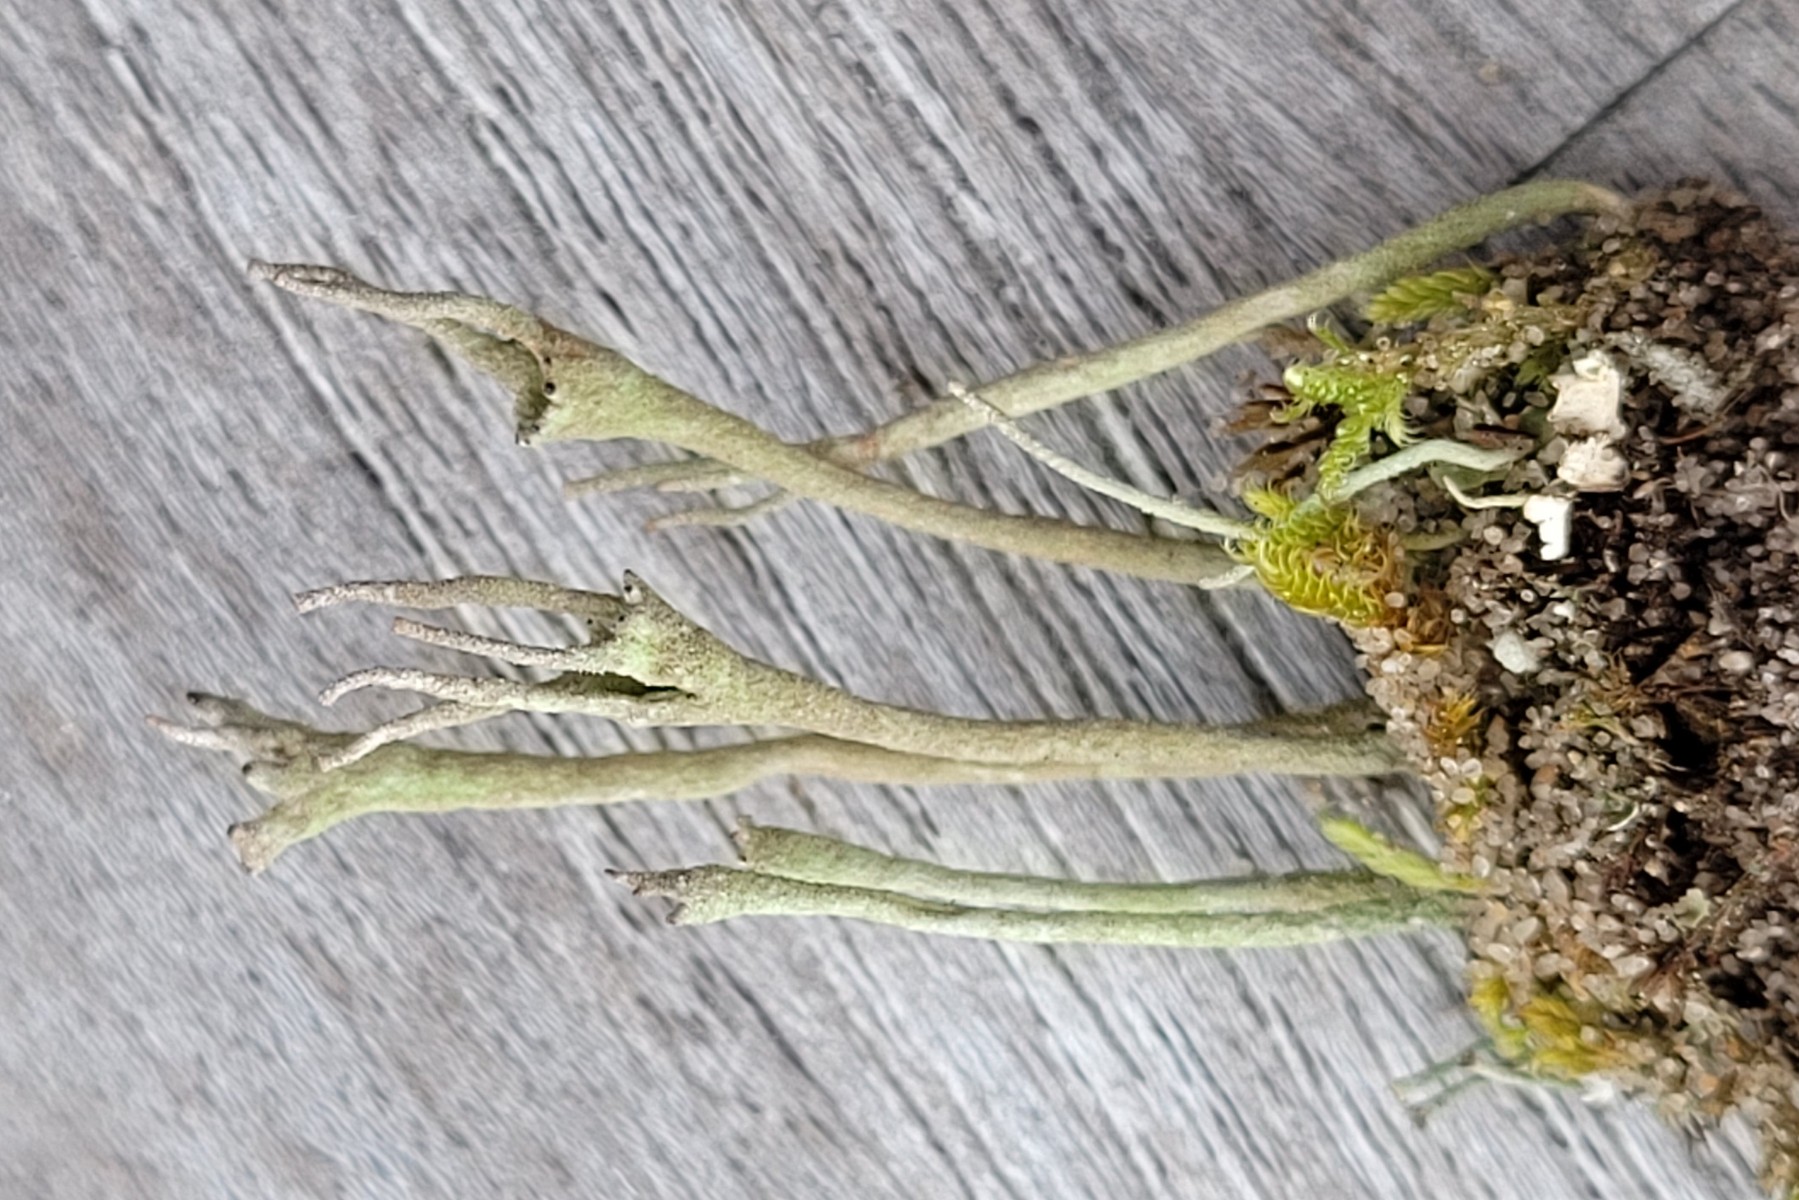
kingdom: Fungi
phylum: Ascomycota
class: Lecanoromycetes
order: Lecanorales
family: Cladoniaceae
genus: Cladonia
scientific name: Cladonia gracilis
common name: slank bægerlav
